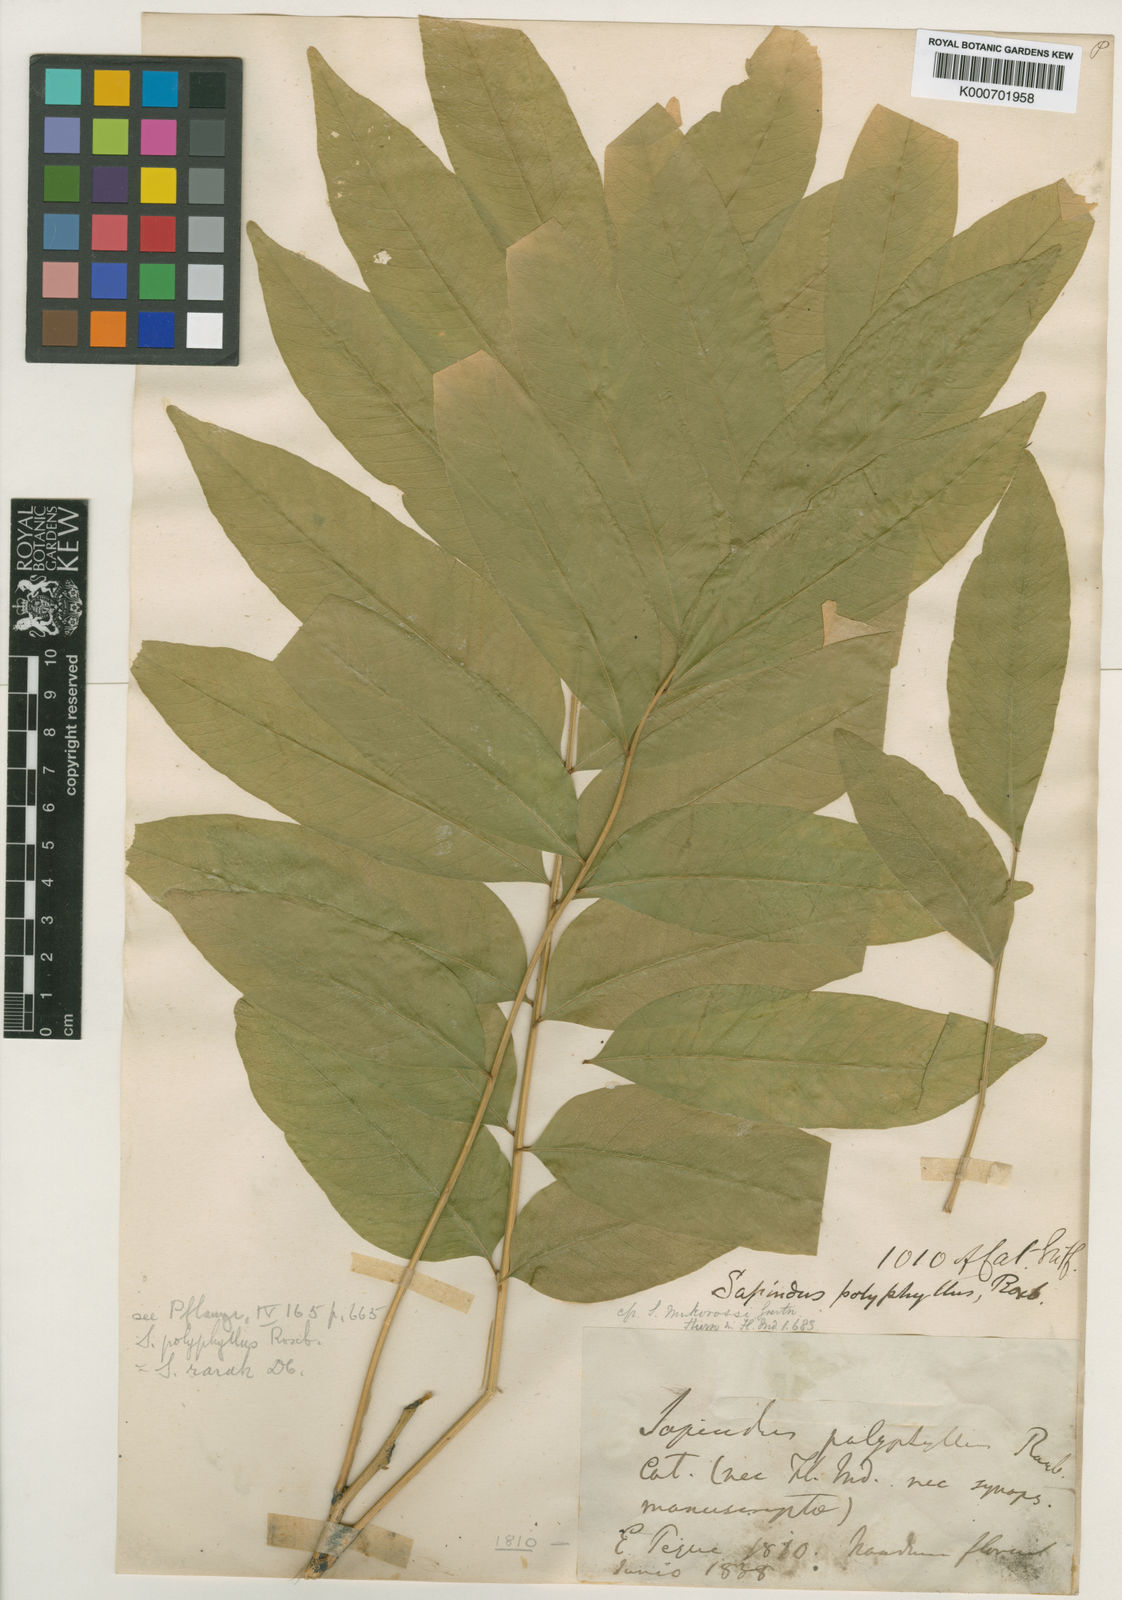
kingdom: Plantae
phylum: Tracheophyta
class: Magnoliopsida
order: Sapindales
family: Sapindaceae
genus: Sapindus
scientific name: Sapindus rarak
